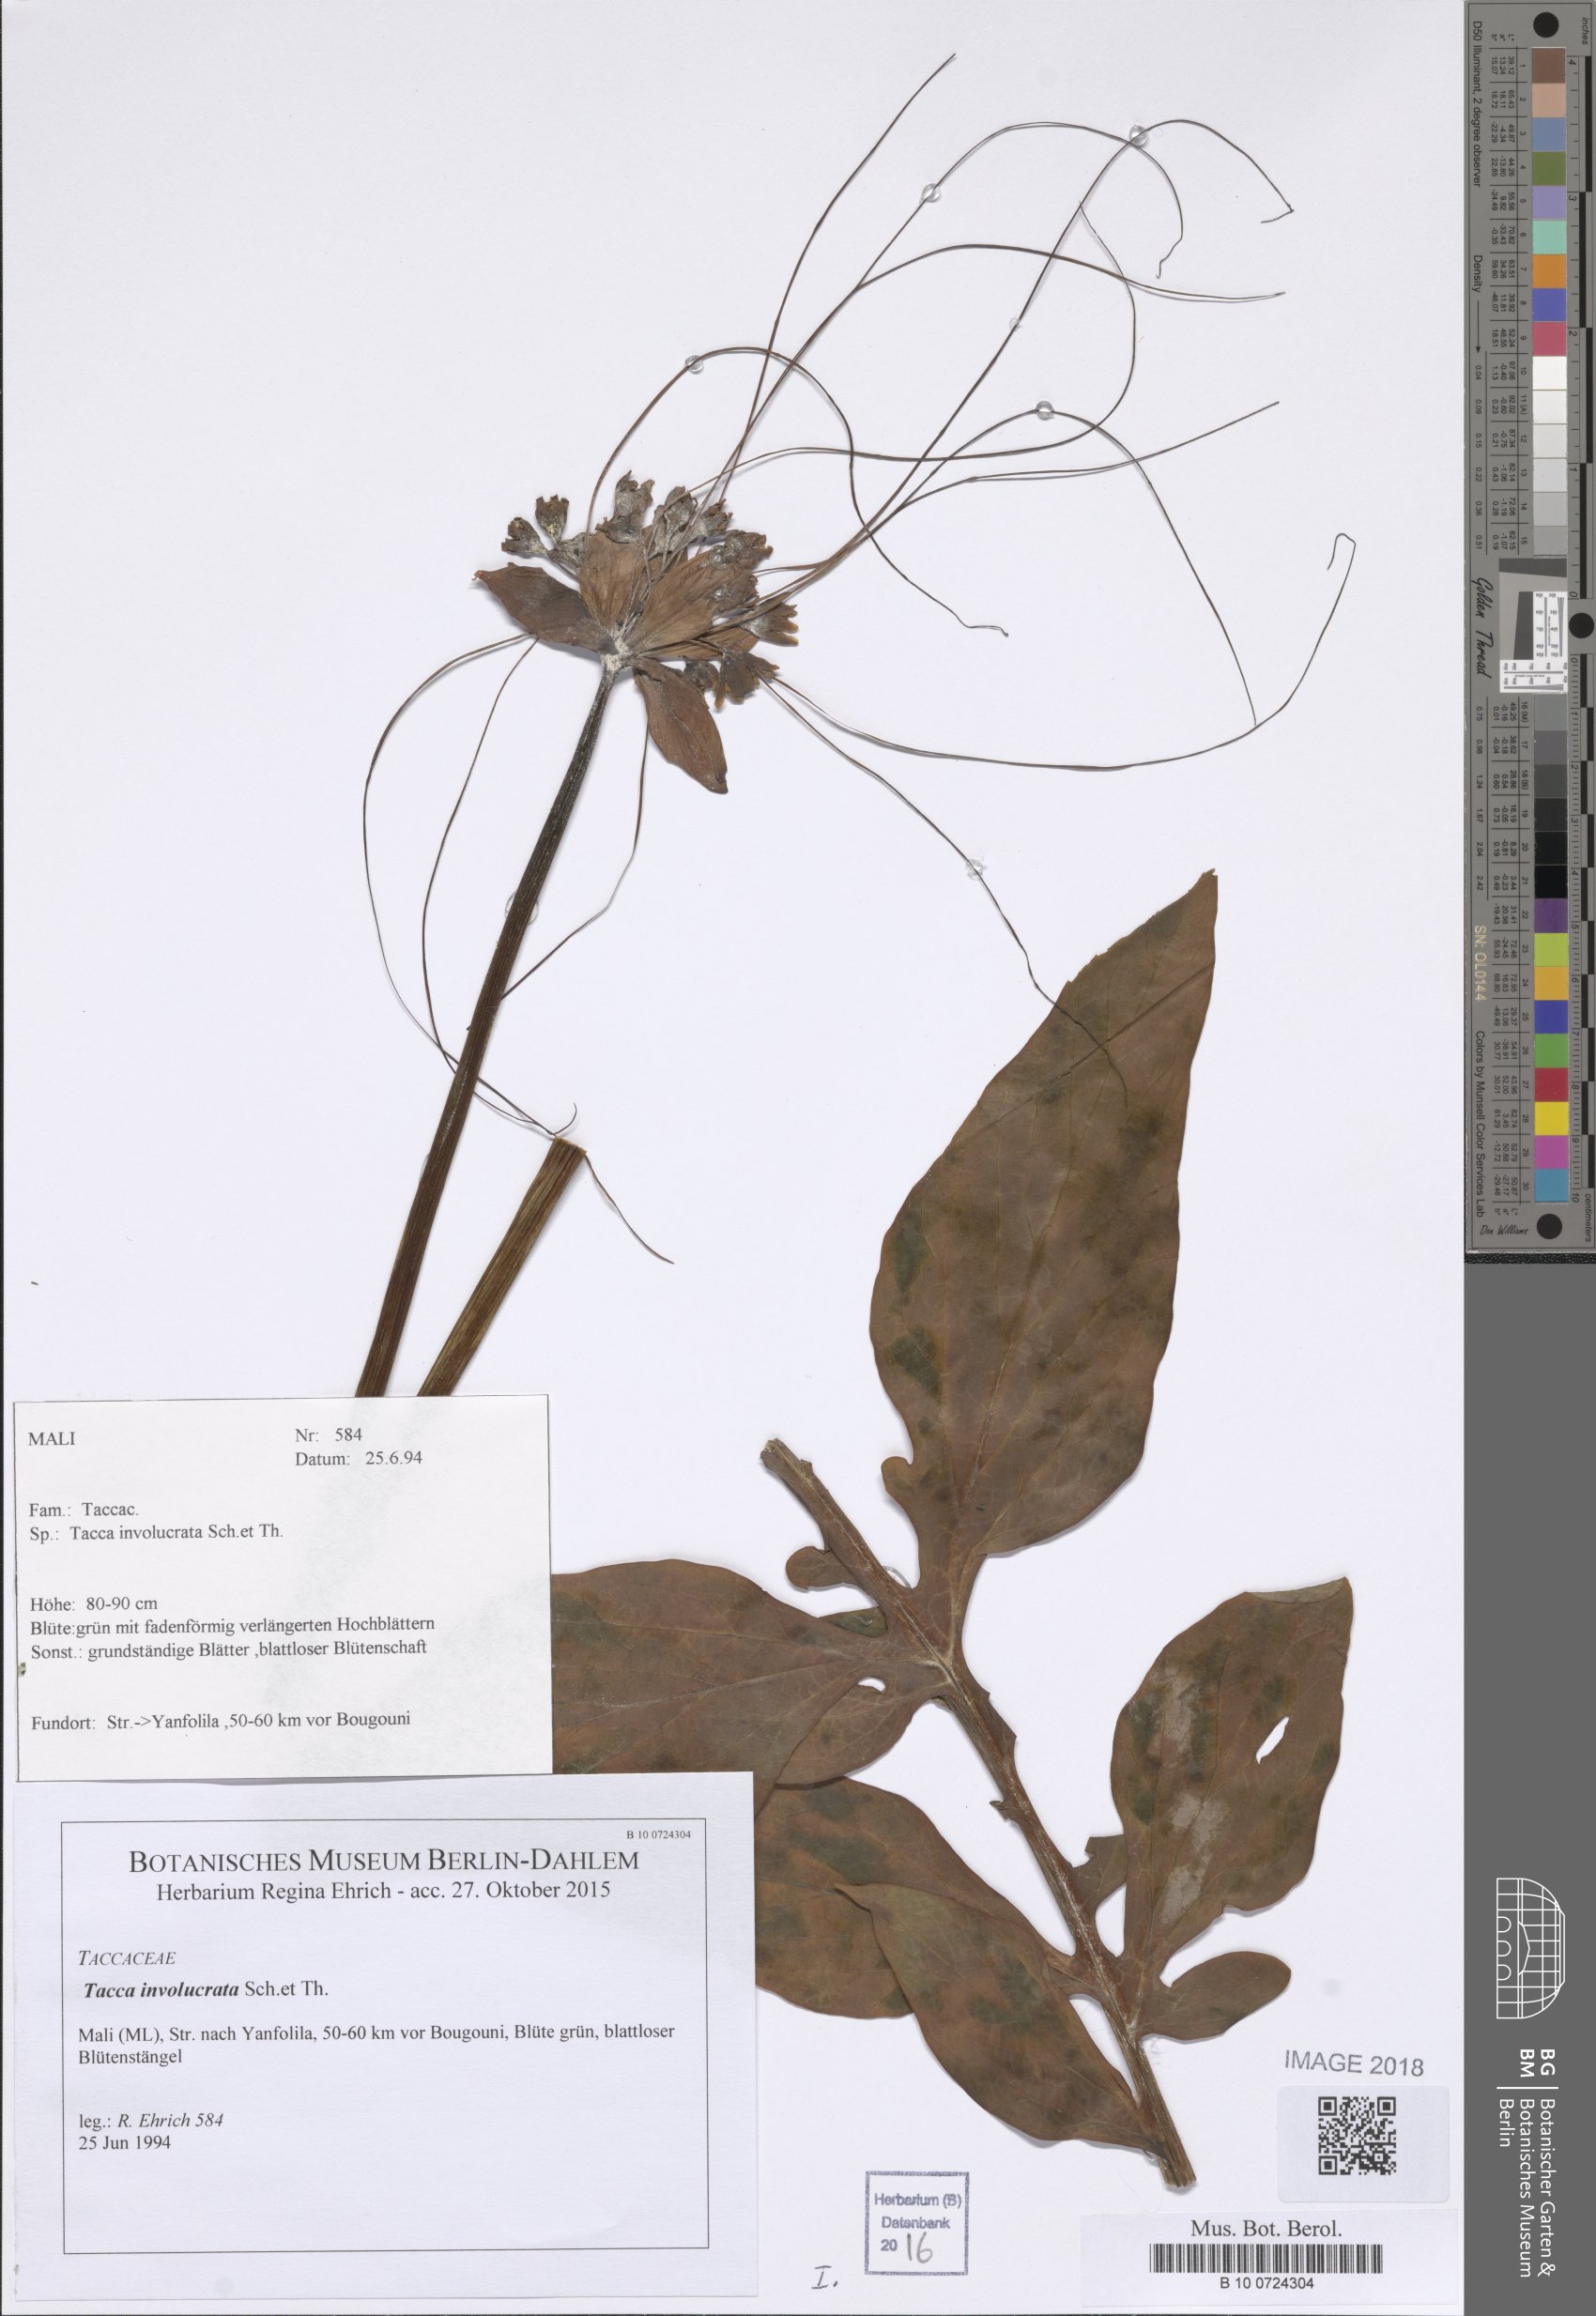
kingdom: Plantae
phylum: Tracheophyta
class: Liliopsida
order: Dioscoreales
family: Dioscoreaceae
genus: Tacca
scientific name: Tacca leontopetaloides
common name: Arrowroot
